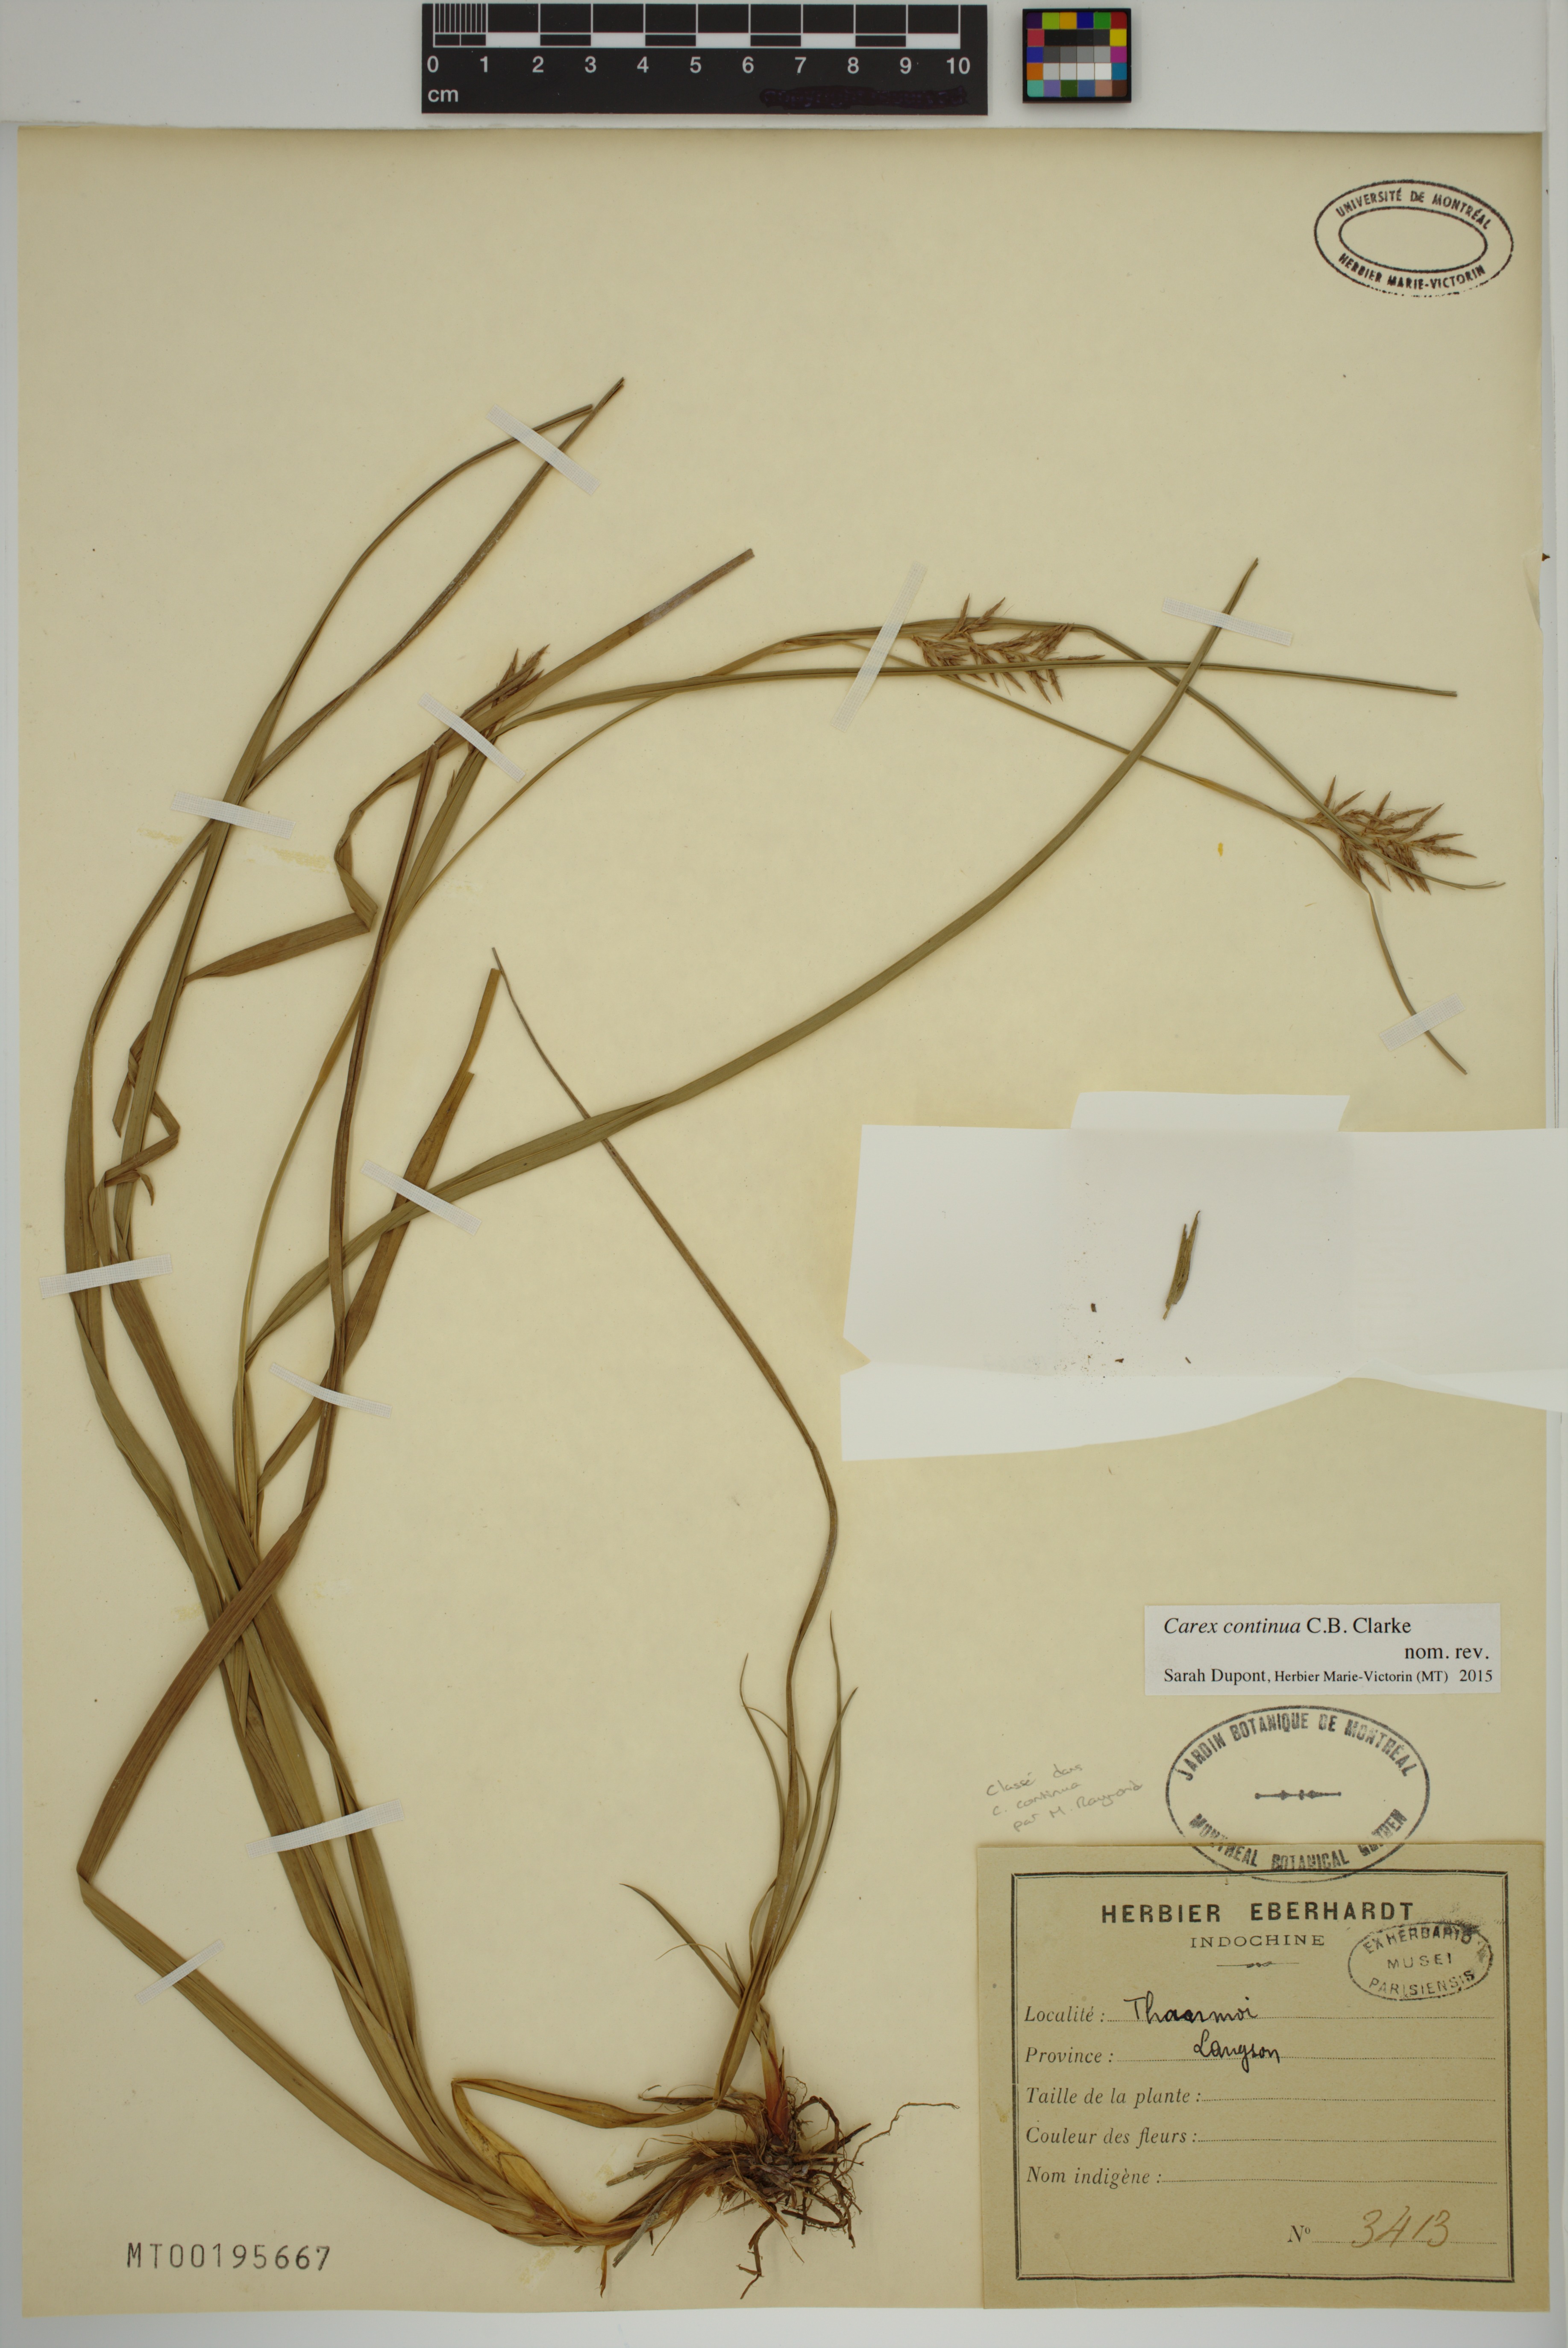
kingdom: Plantae
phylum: Tracheophyta
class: Liliopsida
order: Poales
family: Cyperaceae
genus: Carex
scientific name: Carex continua
